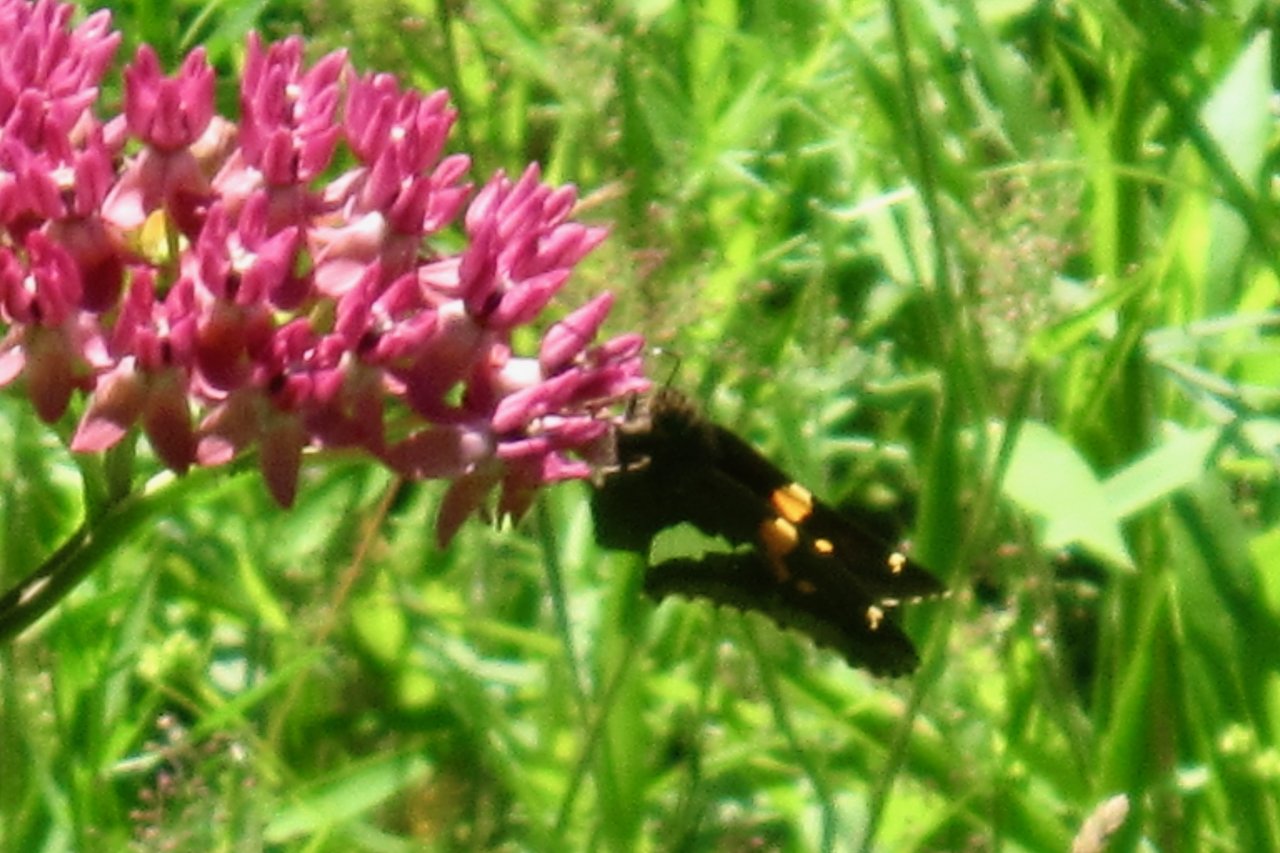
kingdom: Animalia
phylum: Arthropoda
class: Insecta
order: Lepidoptera
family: Hesperiidae
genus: Epargyreus
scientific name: Epargyreus clarus
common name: Silver-spotted Skipper
